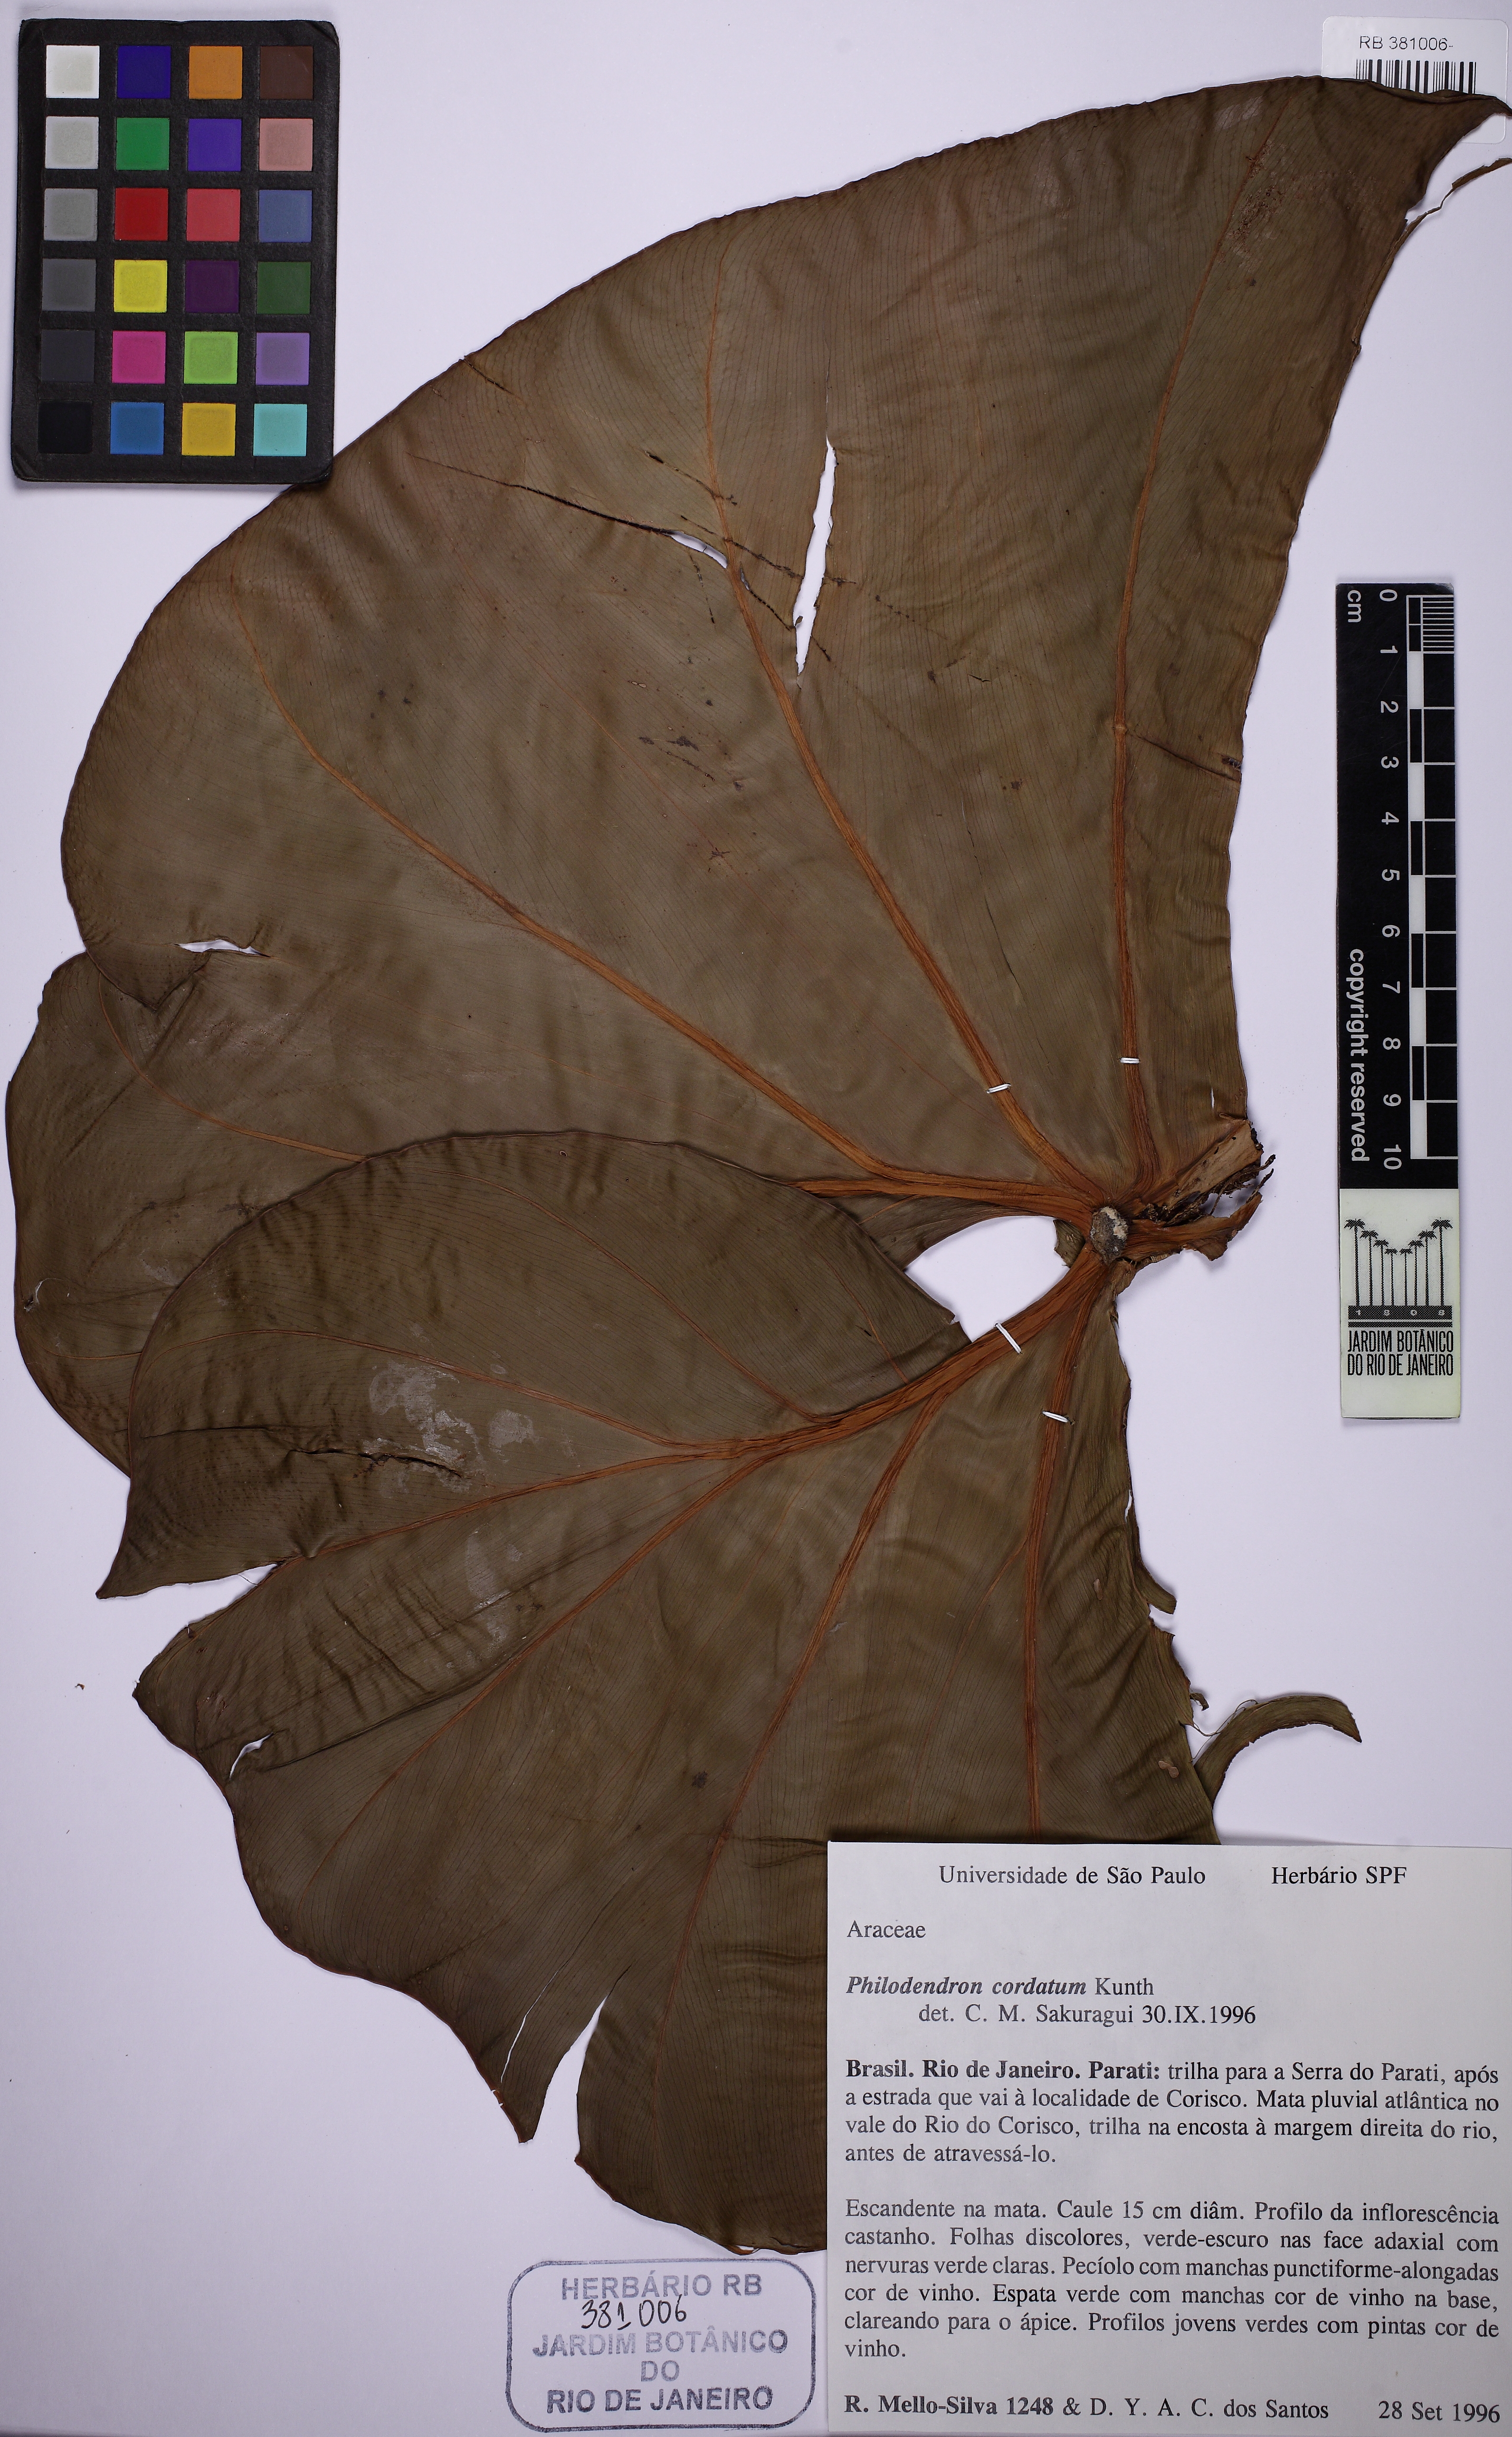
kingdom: Plantae
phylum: Tracheophyta
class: Liliopsida
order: Alismatales
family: Araceae
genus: Philodendron
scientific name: Philodendron cordatum
